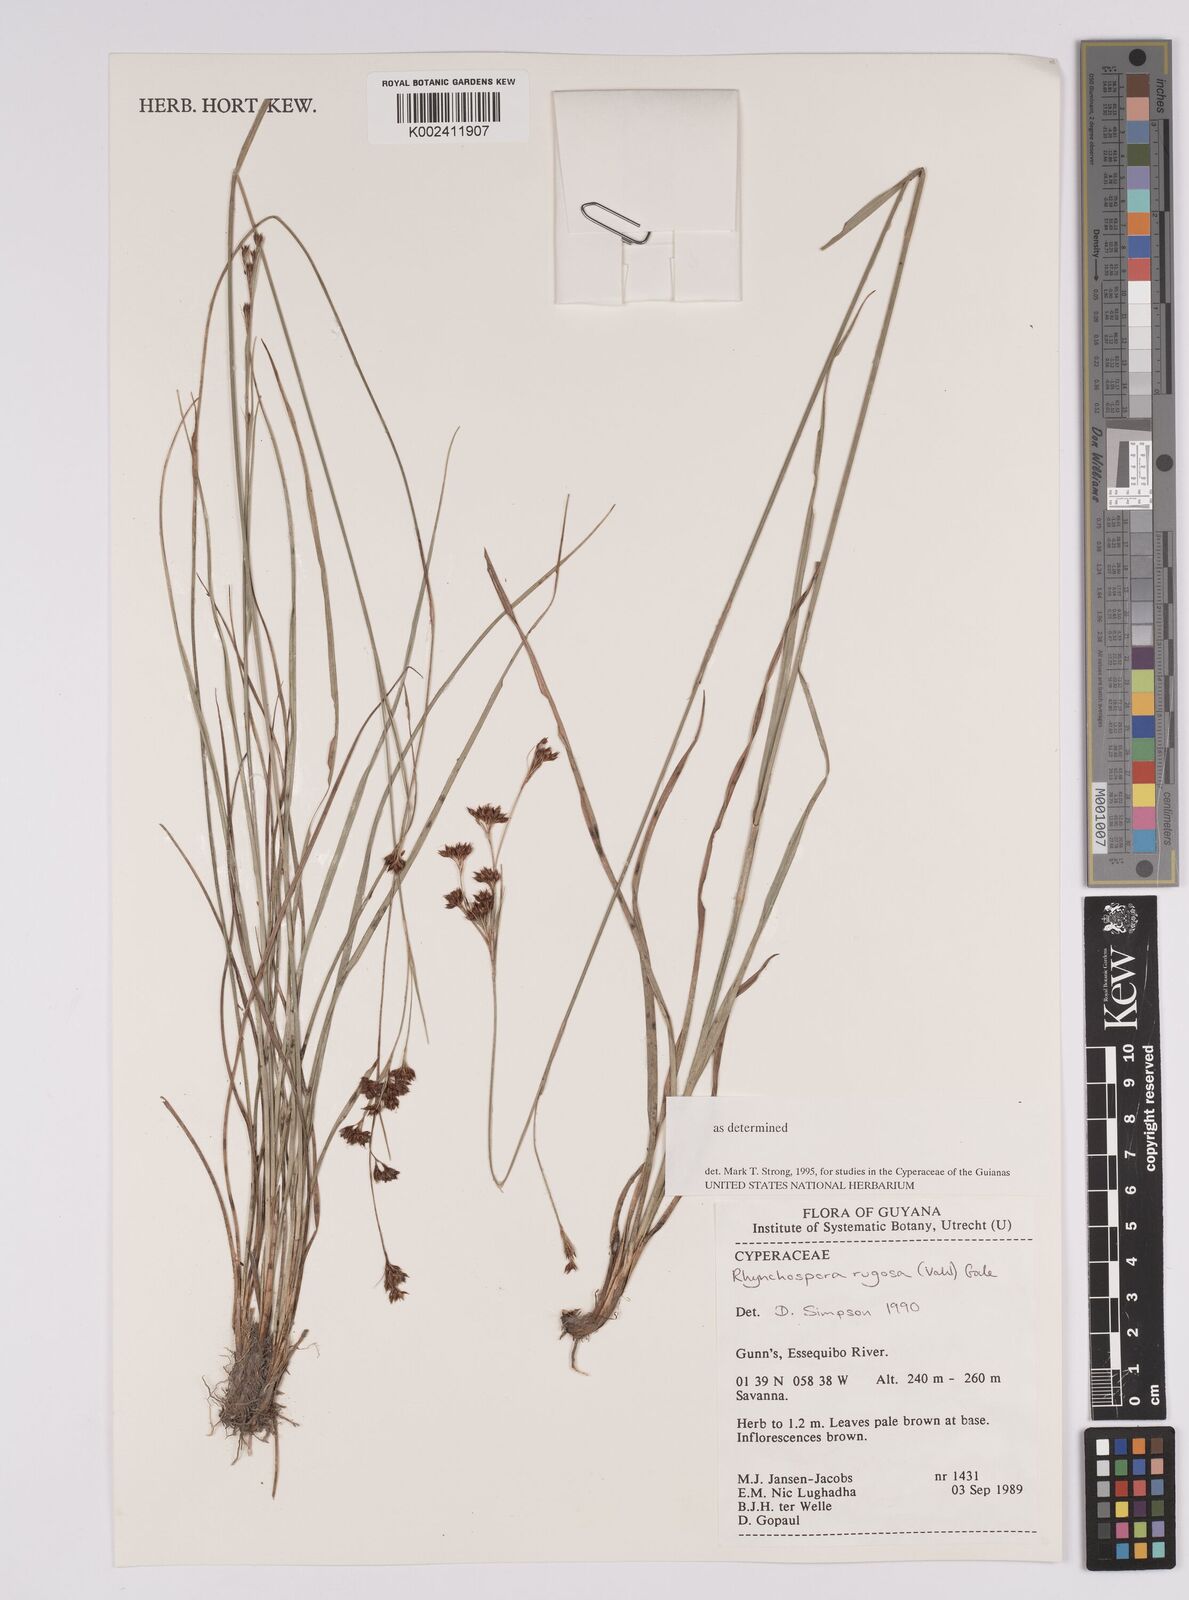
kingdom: Plantae
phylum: Tracheophyta
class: Liliopsida
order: Poales
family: Cyperaceae
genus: Rhynchospora
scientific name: Rhynchospora rugosa
